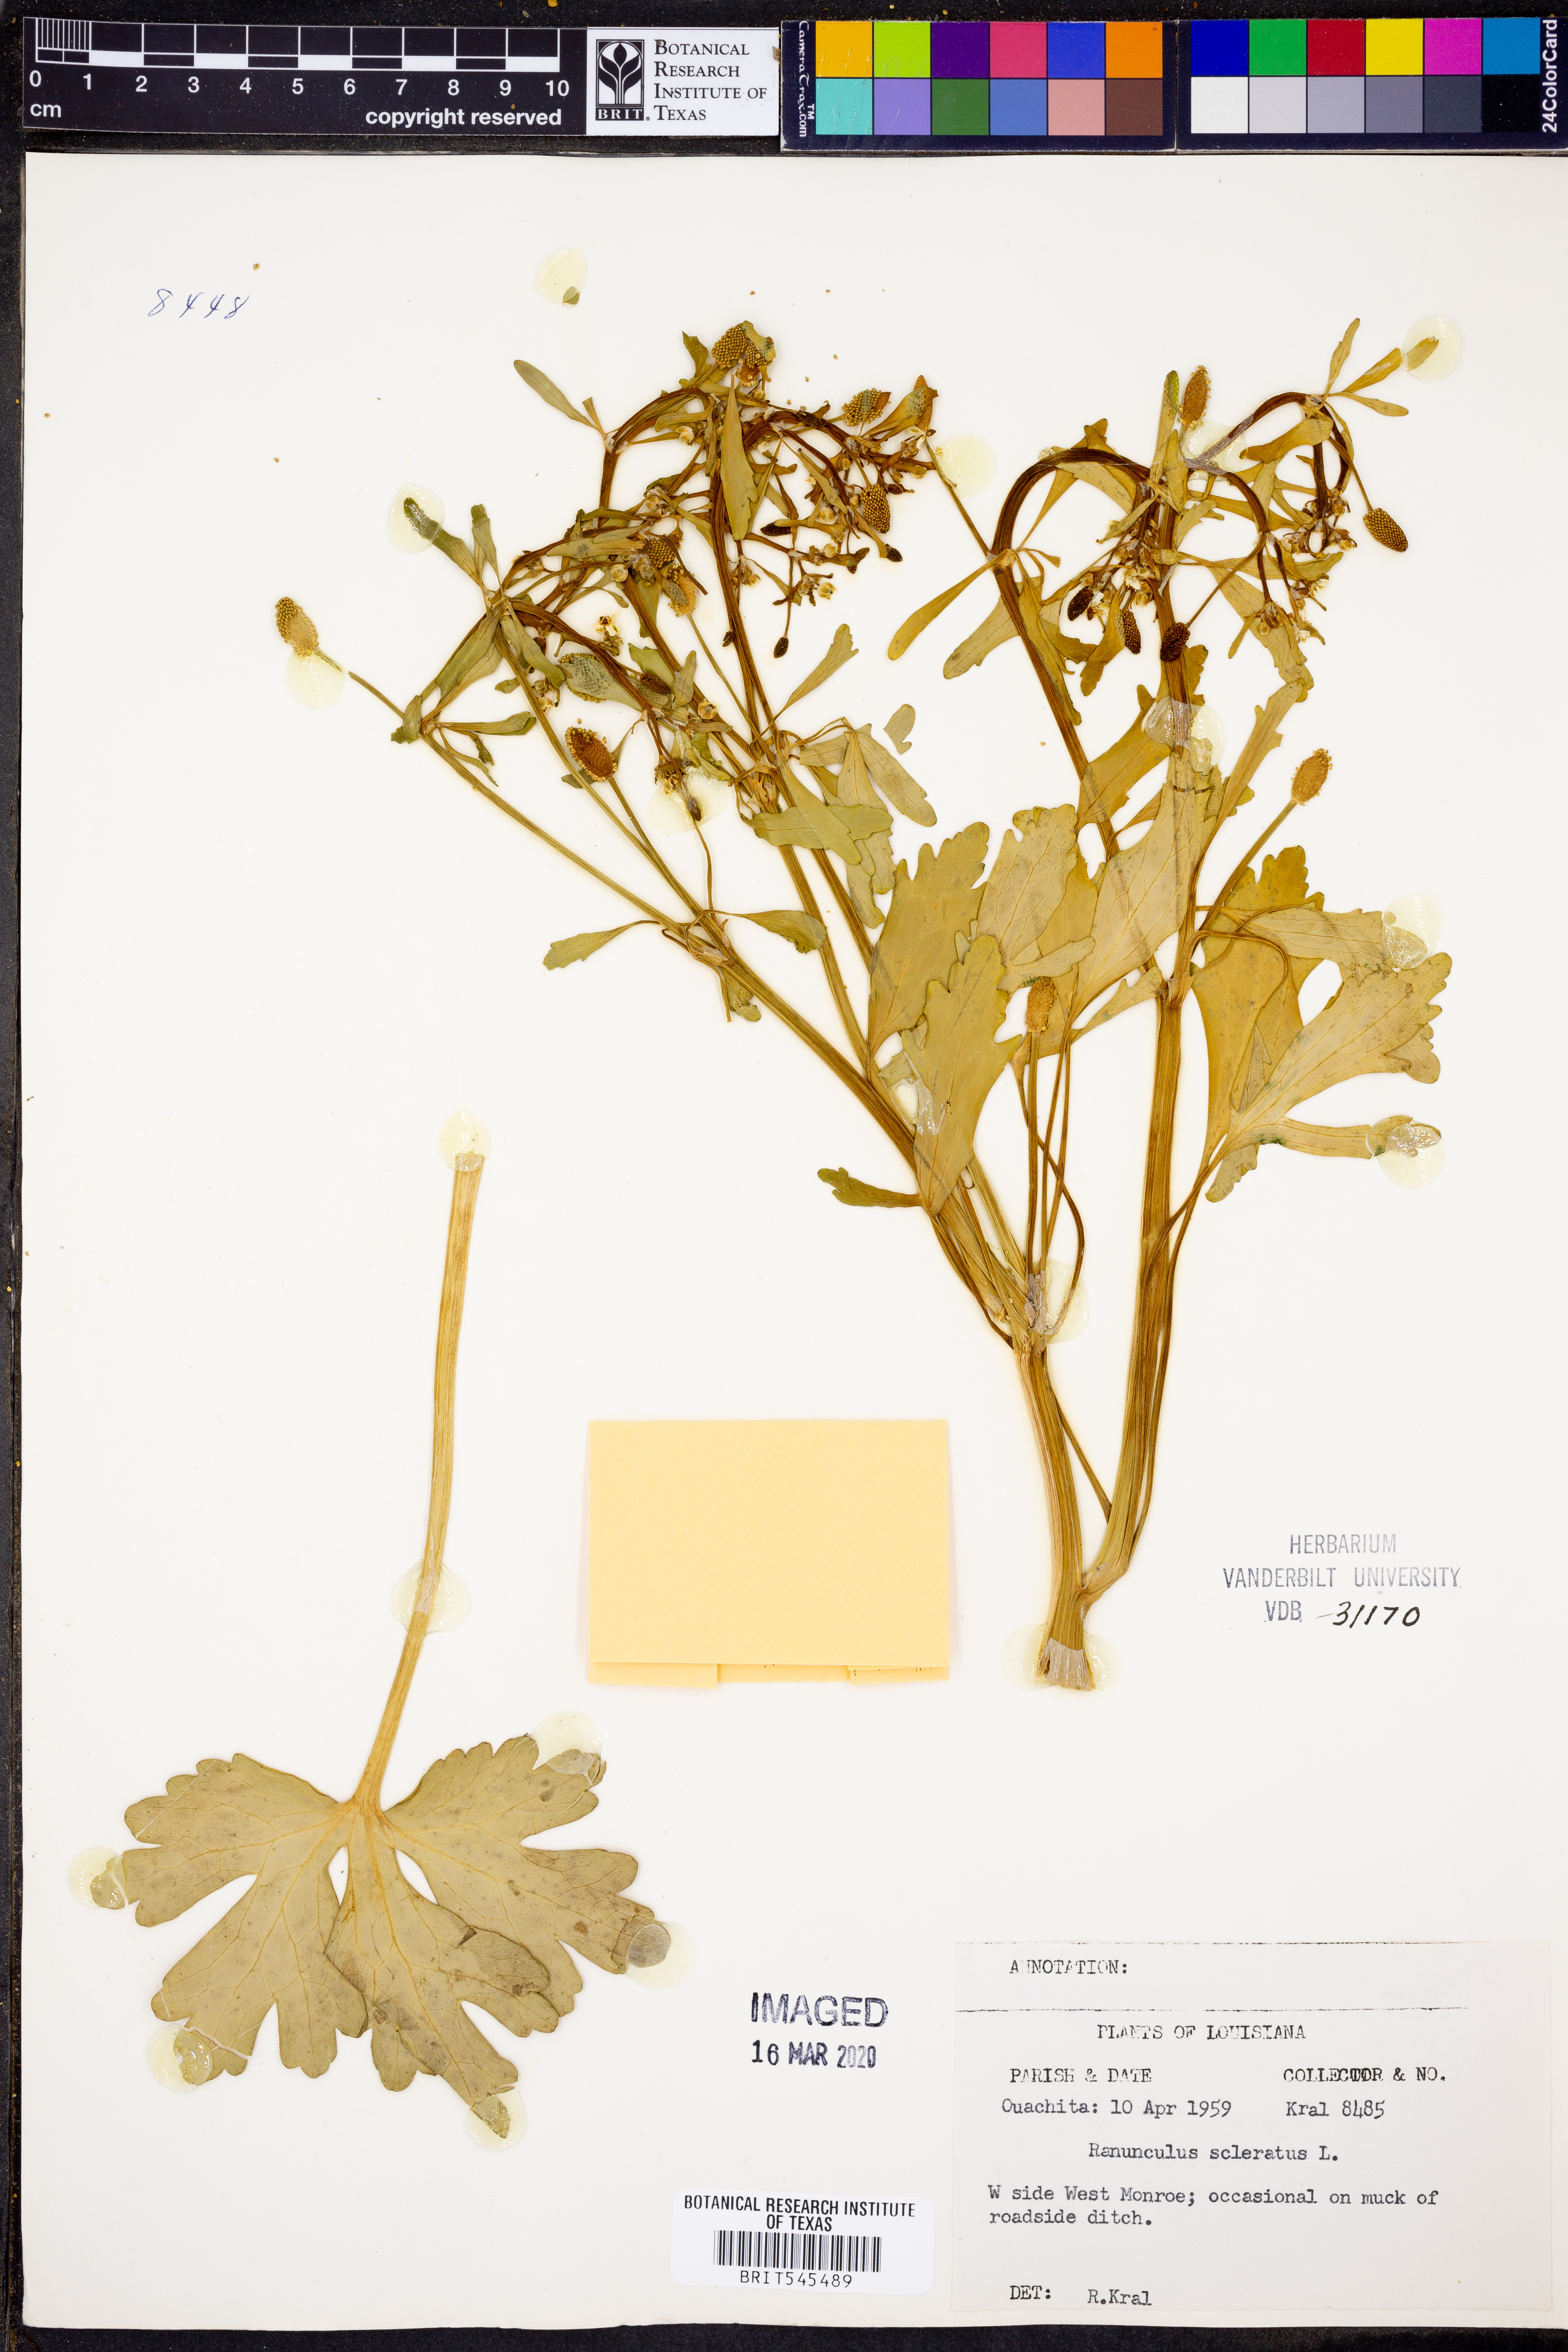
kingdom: Plantae
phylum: Tracheophyta
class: Magnoliopsida
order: Ranunculales
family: Ranunculaceae
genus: Ranunculus
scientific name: Ranunculus sceleratus
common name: Celery-leaved buttercup
